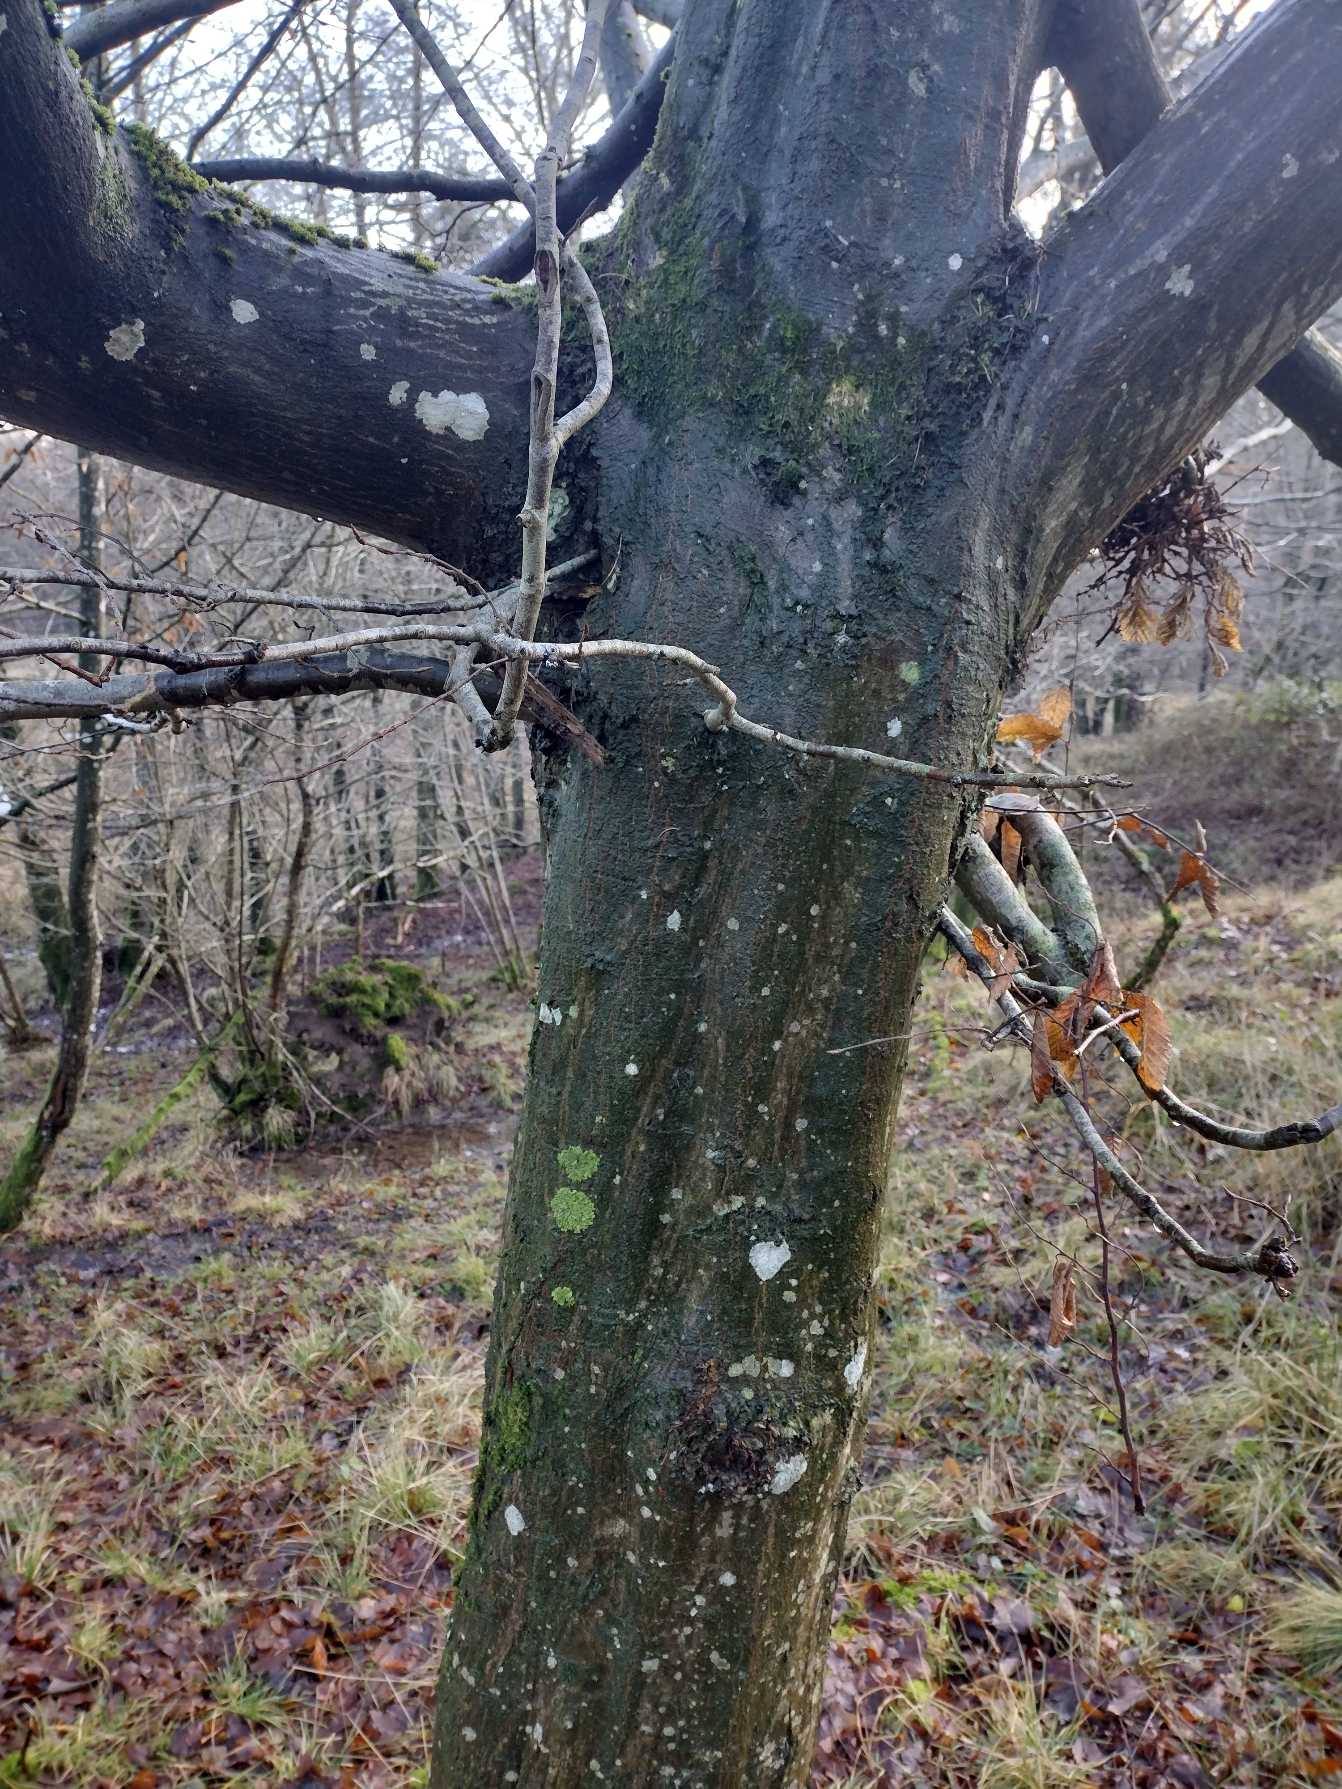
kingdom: Plantae
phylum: Tracheophyta
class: Magnoliopsida
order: Fagales
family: Betulaceae
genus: Carpinus
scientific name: Carpinus betulus
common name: Avnbøg
